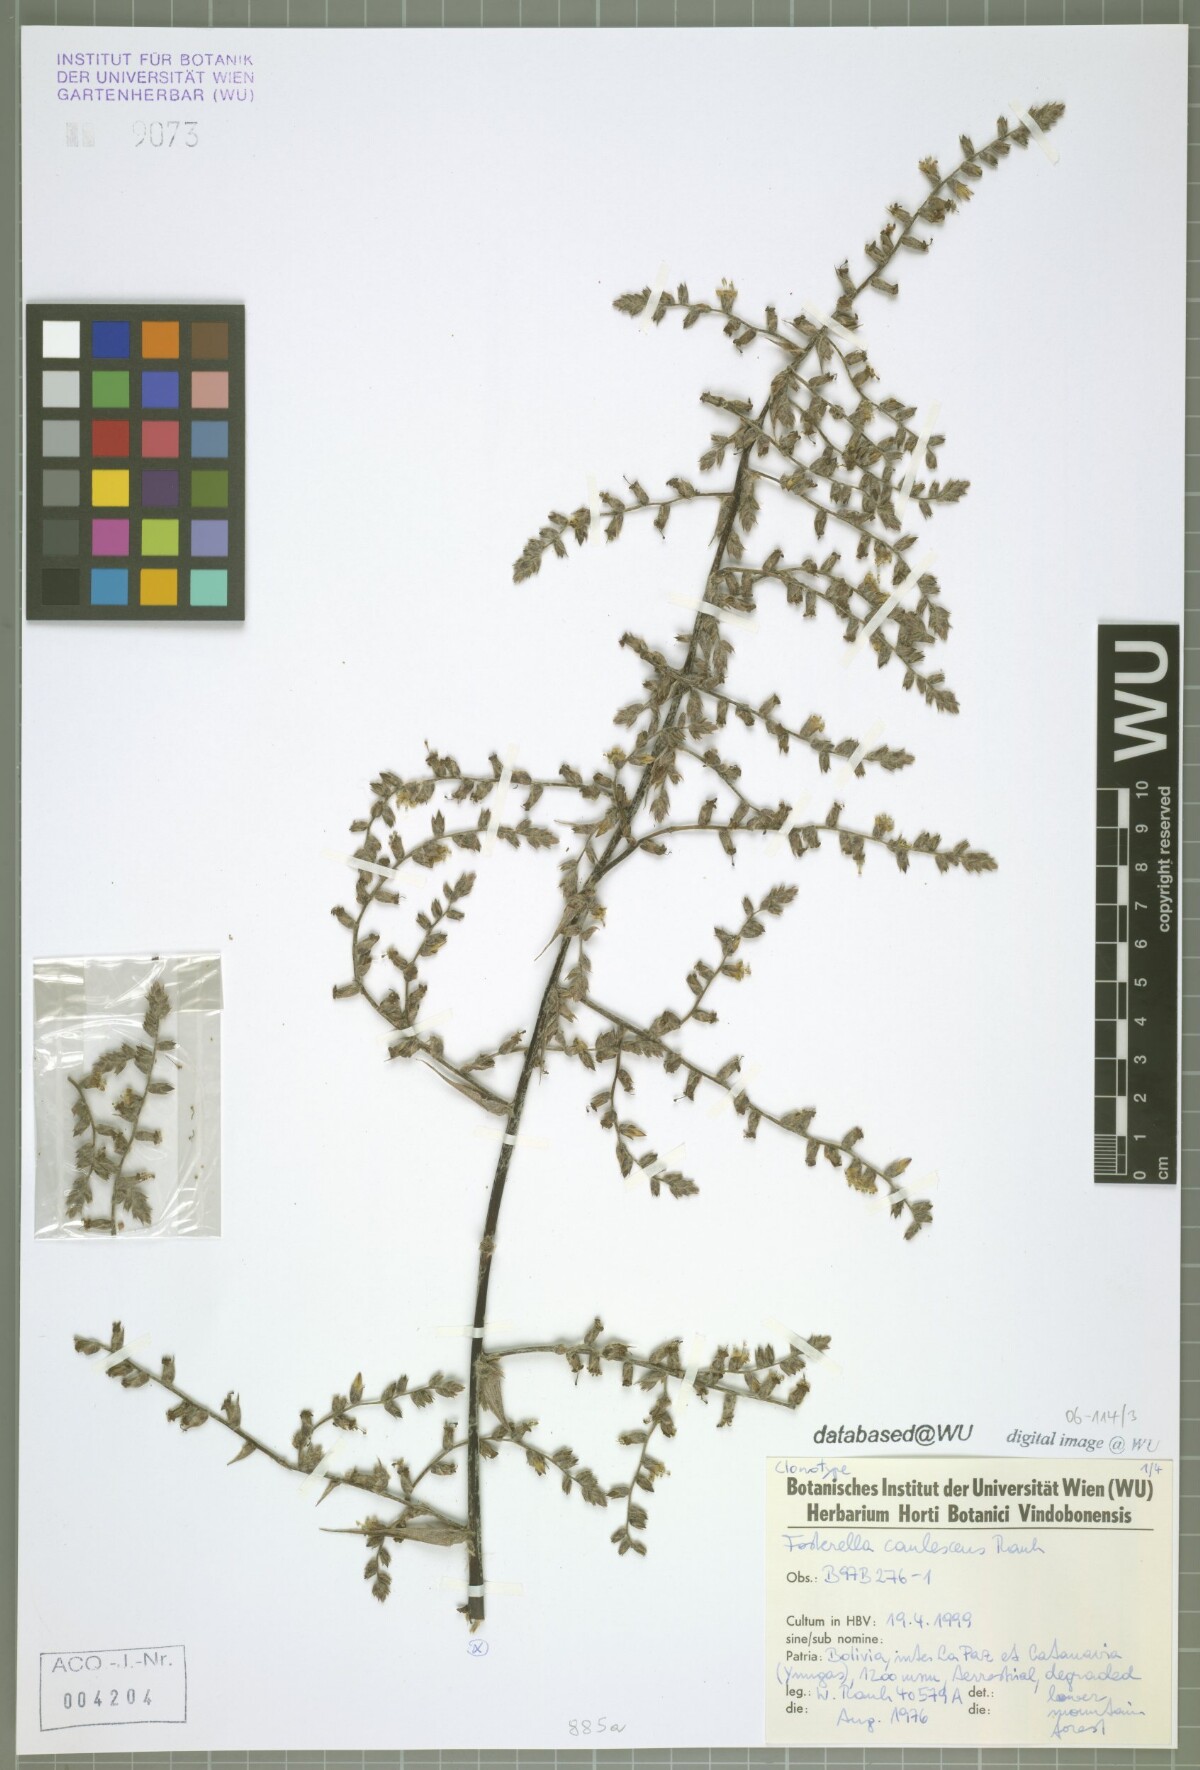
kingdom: Plantae
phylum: Tracheophyta
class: Liliopsida
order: Poales
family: Bromeliaceae
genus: Fosterella
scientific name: Fosterella caulescens
